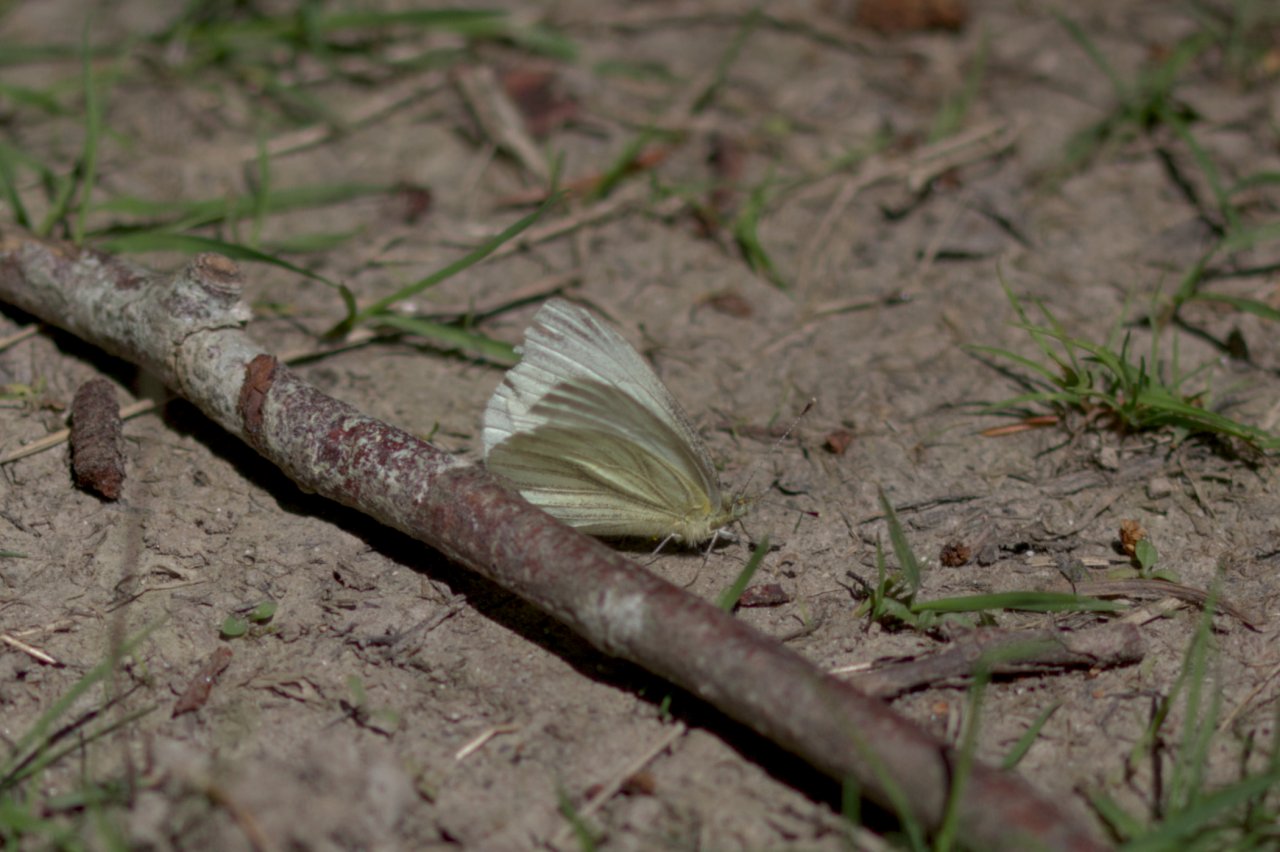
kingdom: Animalia
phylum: Arthropoda
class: Insecta
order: Lepidoptera
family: Pieridae
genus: Pieris
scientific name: Pieris marginalis
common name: Margined White
